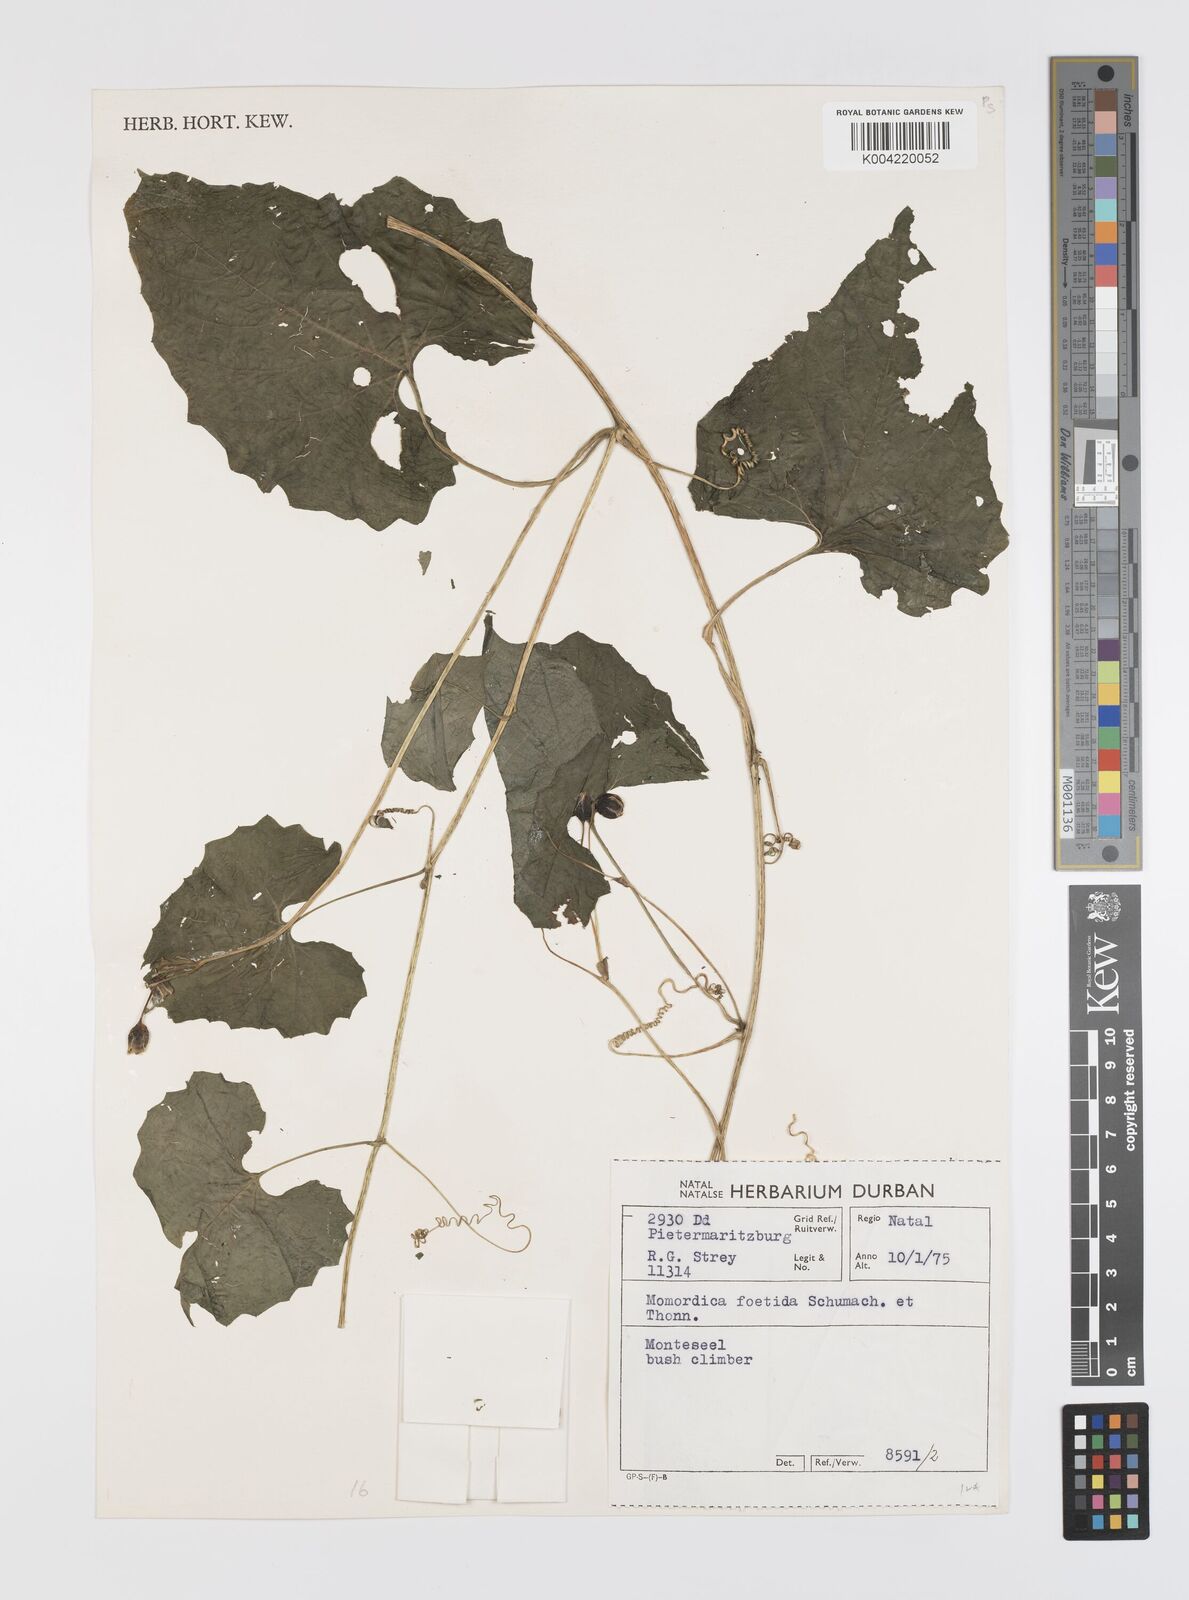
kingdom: Plantae
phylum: Tracheophyta
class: Magnoliopsida
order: Cucurbitales
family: Cucurbitaceae
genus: Momordica
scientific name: Momordica foetida
